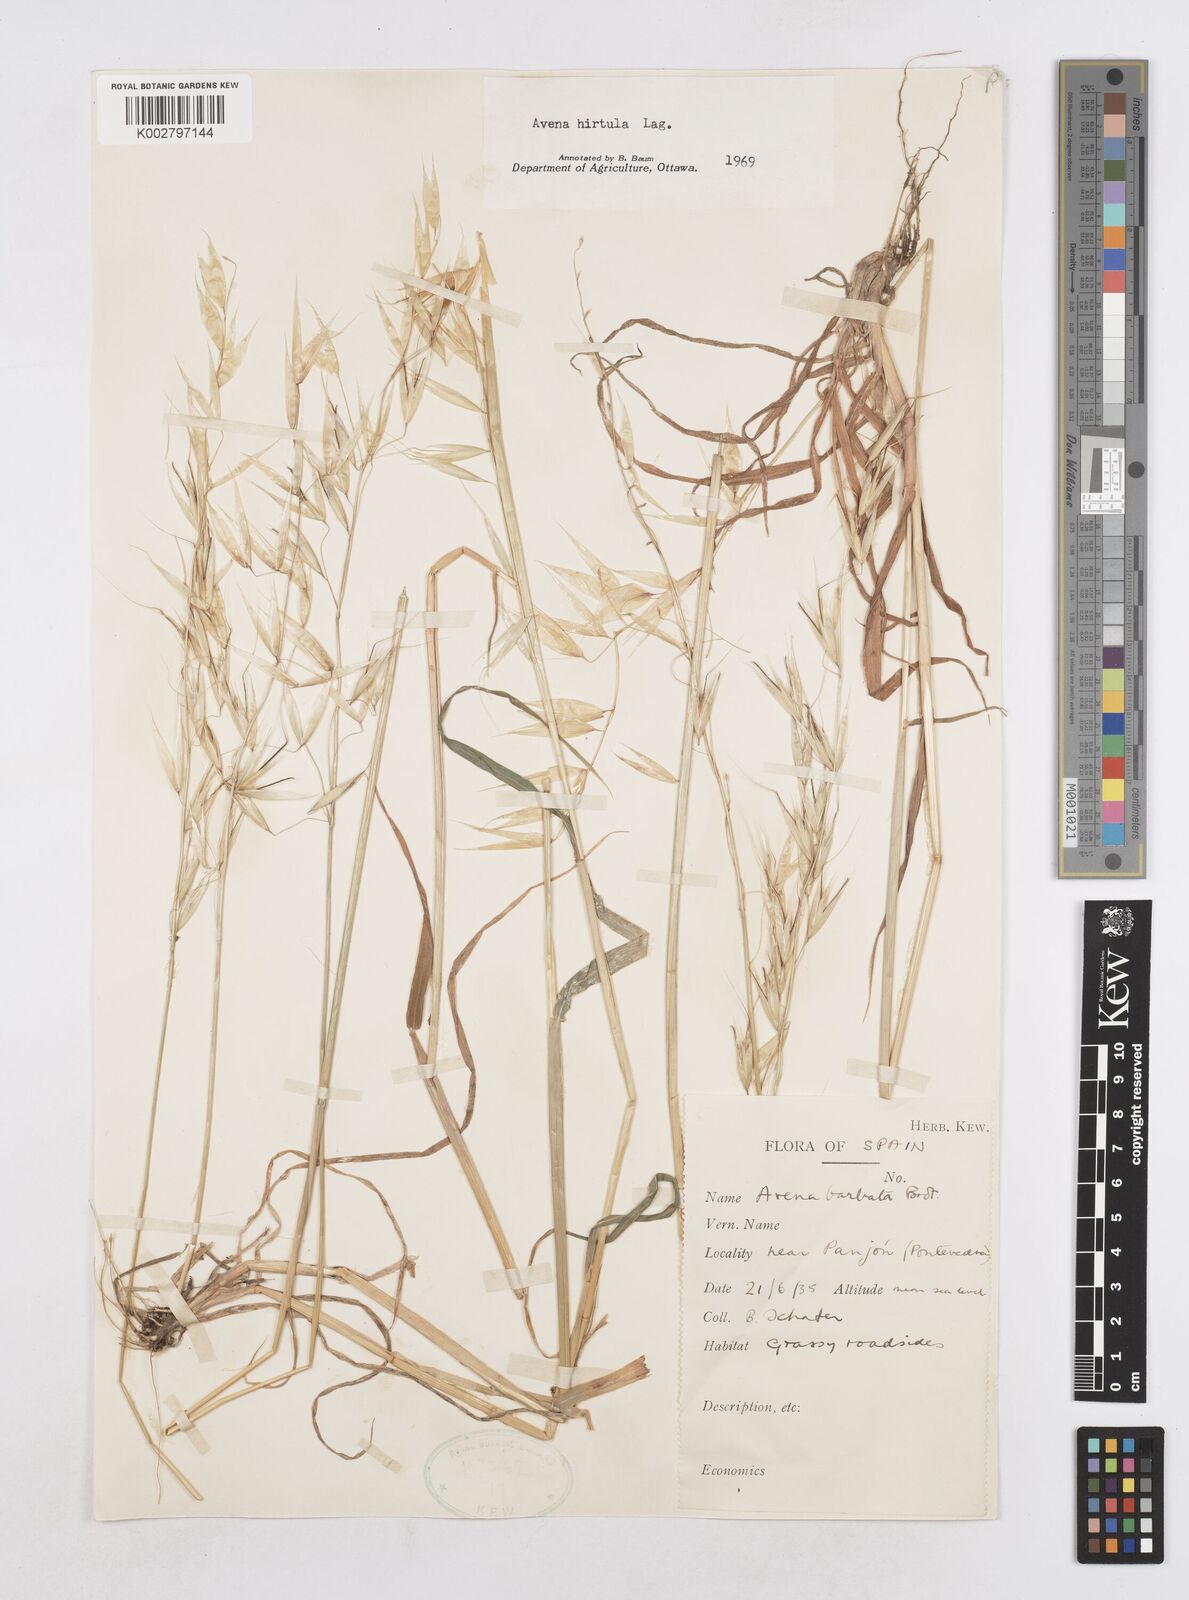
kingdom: Plantae
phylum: Tracheophyta
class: Liliopsida
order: Poales
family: Poaceae
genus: Avena
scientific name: Avena
